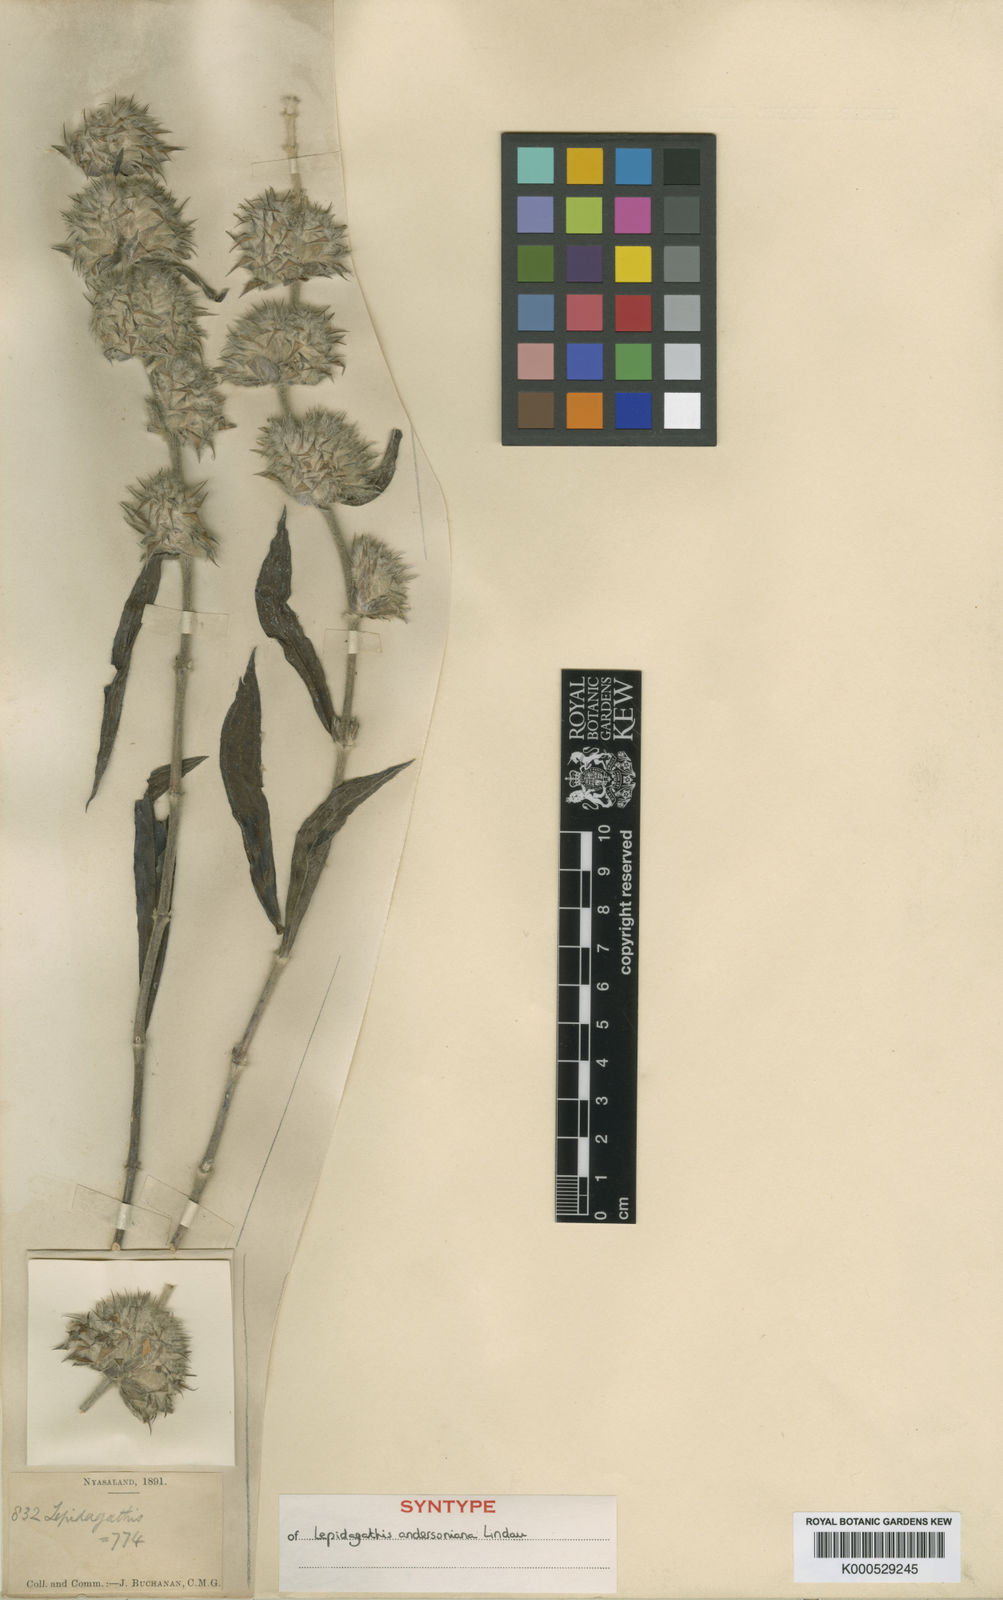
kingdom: Plantae
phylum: Tracheophyta
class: Magnoliopsida
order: Lamiales
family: Acanthaceae
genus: Lepidagathis
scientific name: Lepidagathis andersoniana
